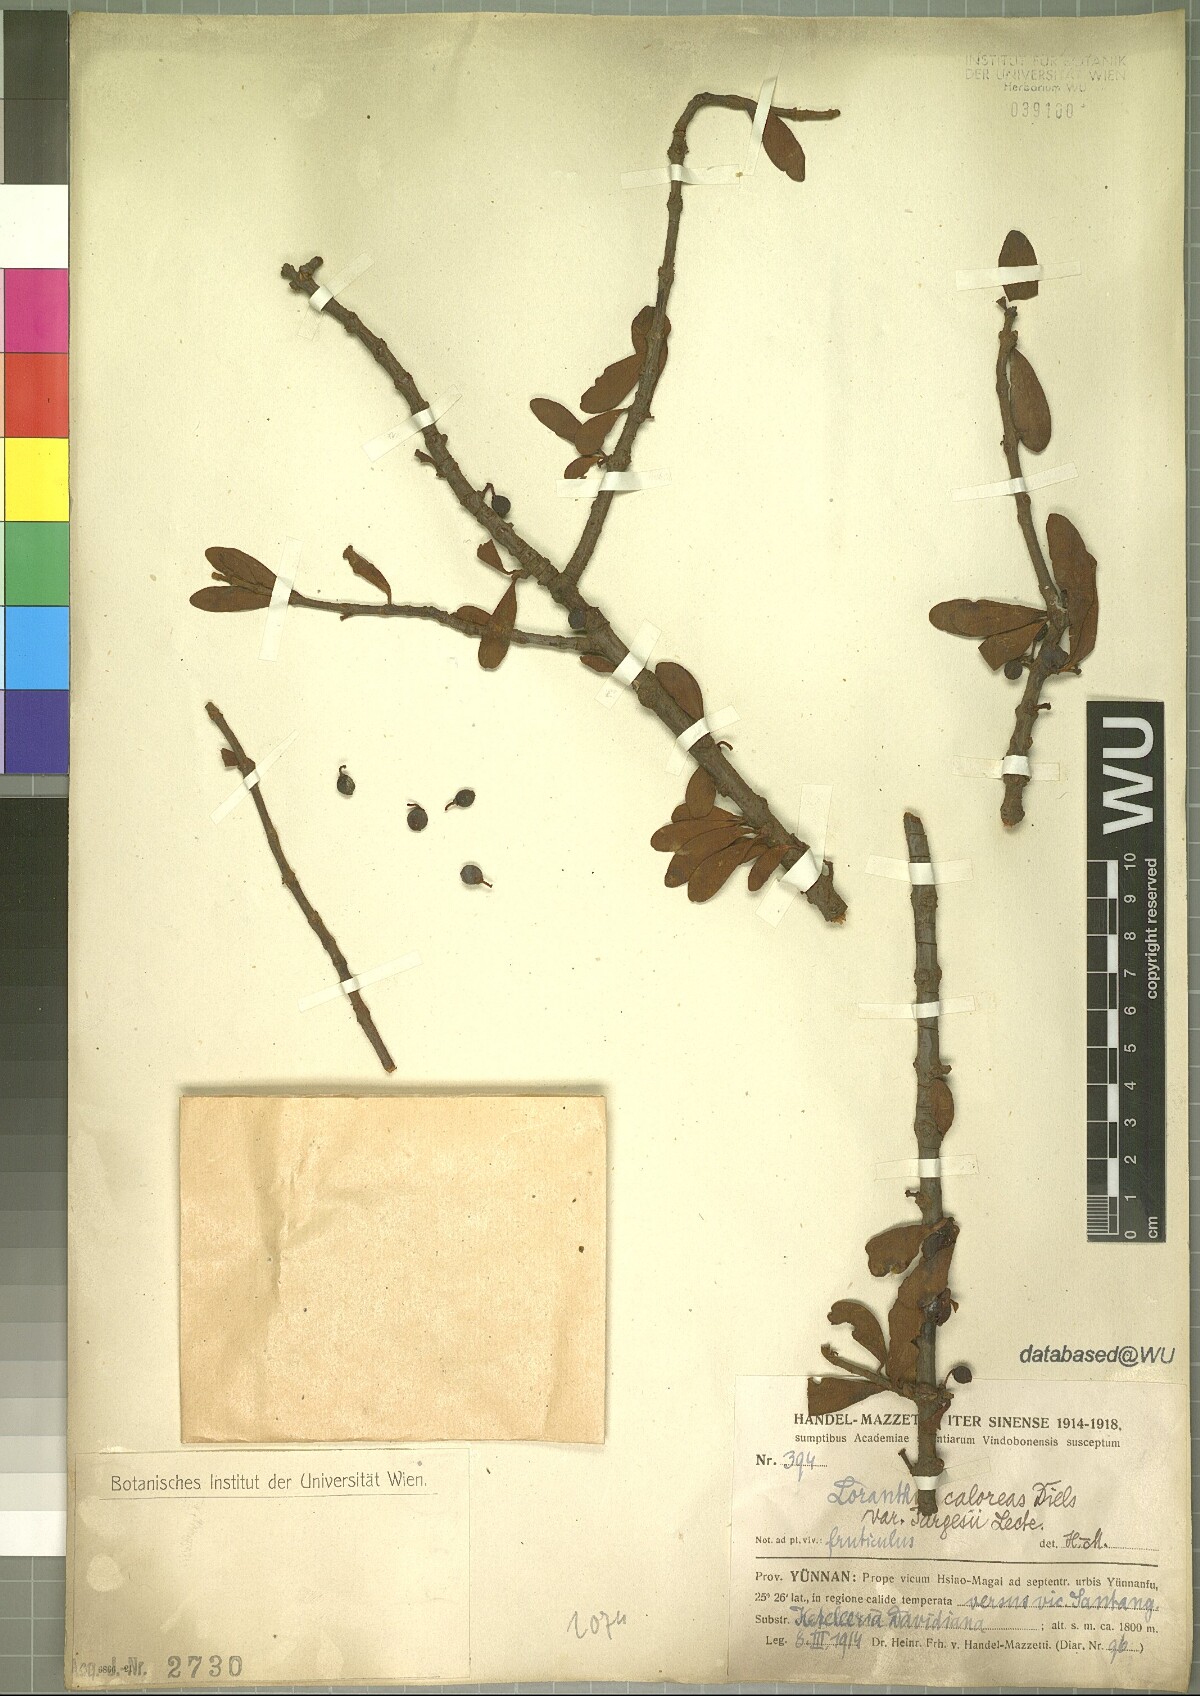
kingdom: Plantae
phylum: Tracheophyta
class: Magnoliopsida
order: Santalales
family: Loranthaceae
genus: Taxillus
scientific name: Taxillus caloreas
